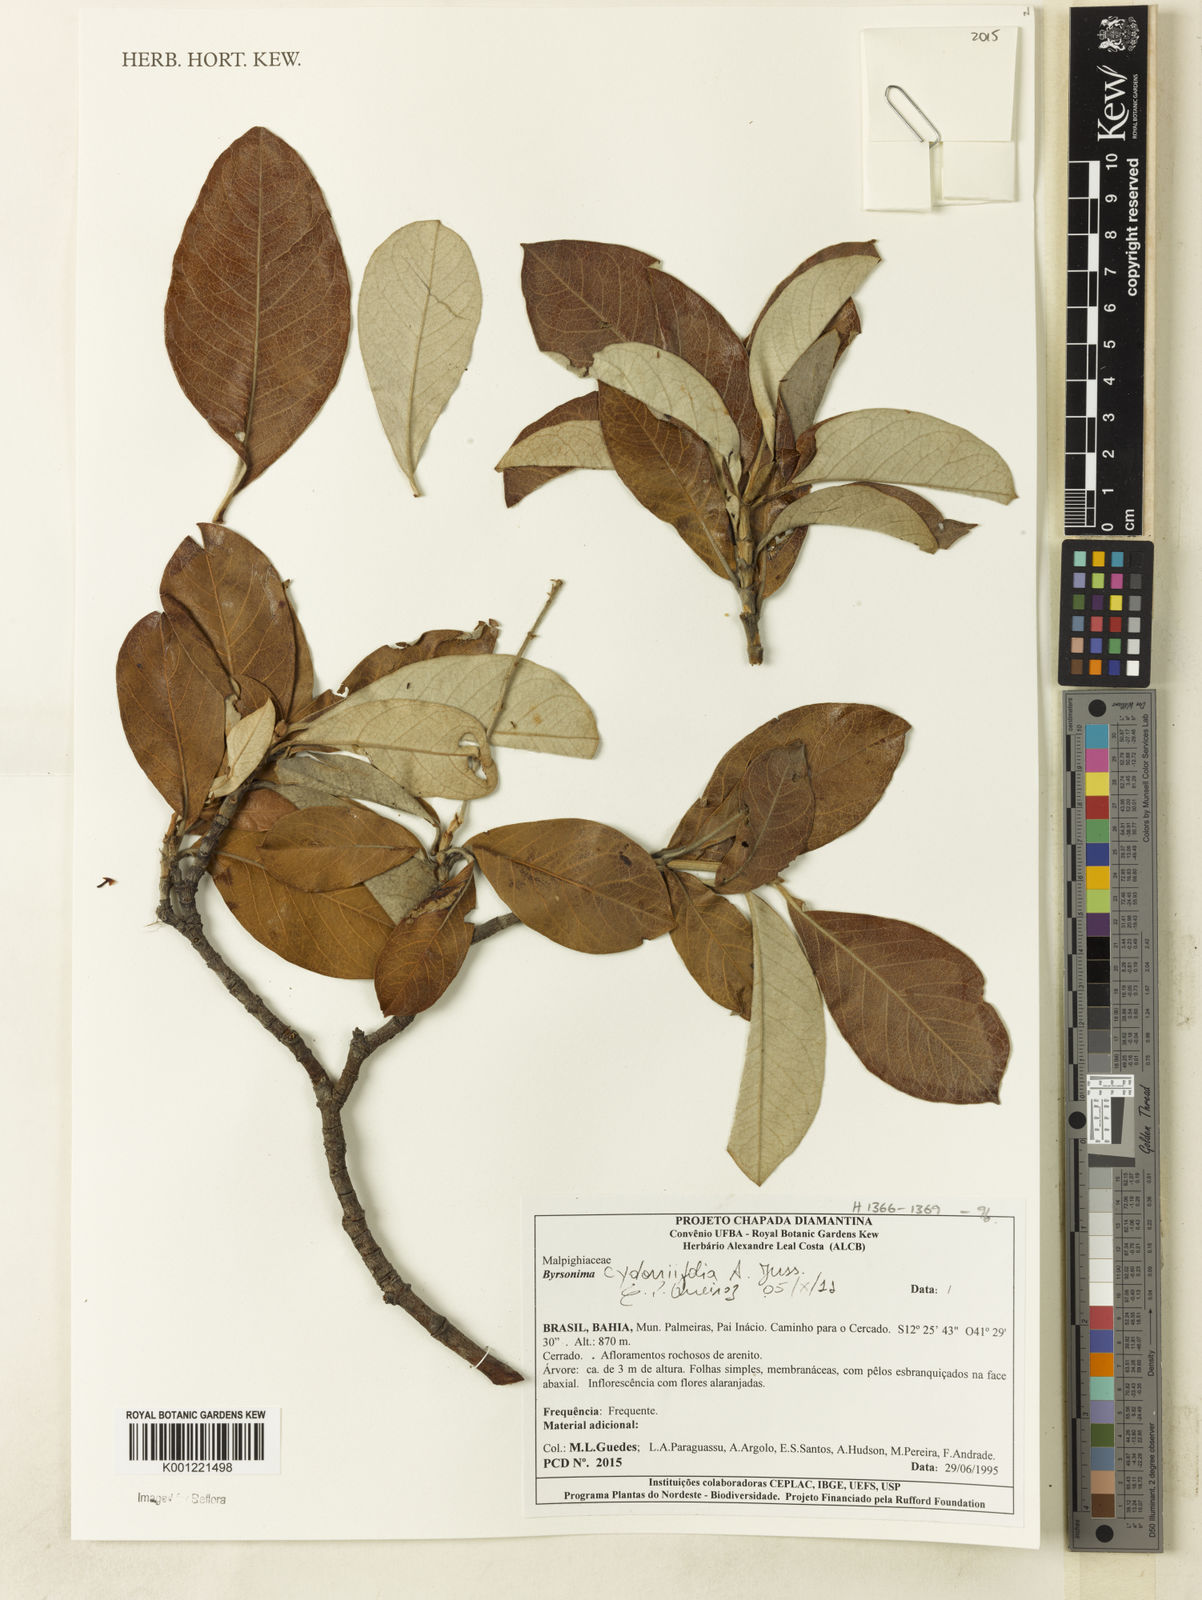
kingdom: Plantae
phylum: Tracheophyta
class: Magnoliopsida
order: Malpighiales
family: Malpighiaceae
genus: Byrsonima
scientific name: Byrsonima cydoniifolia
